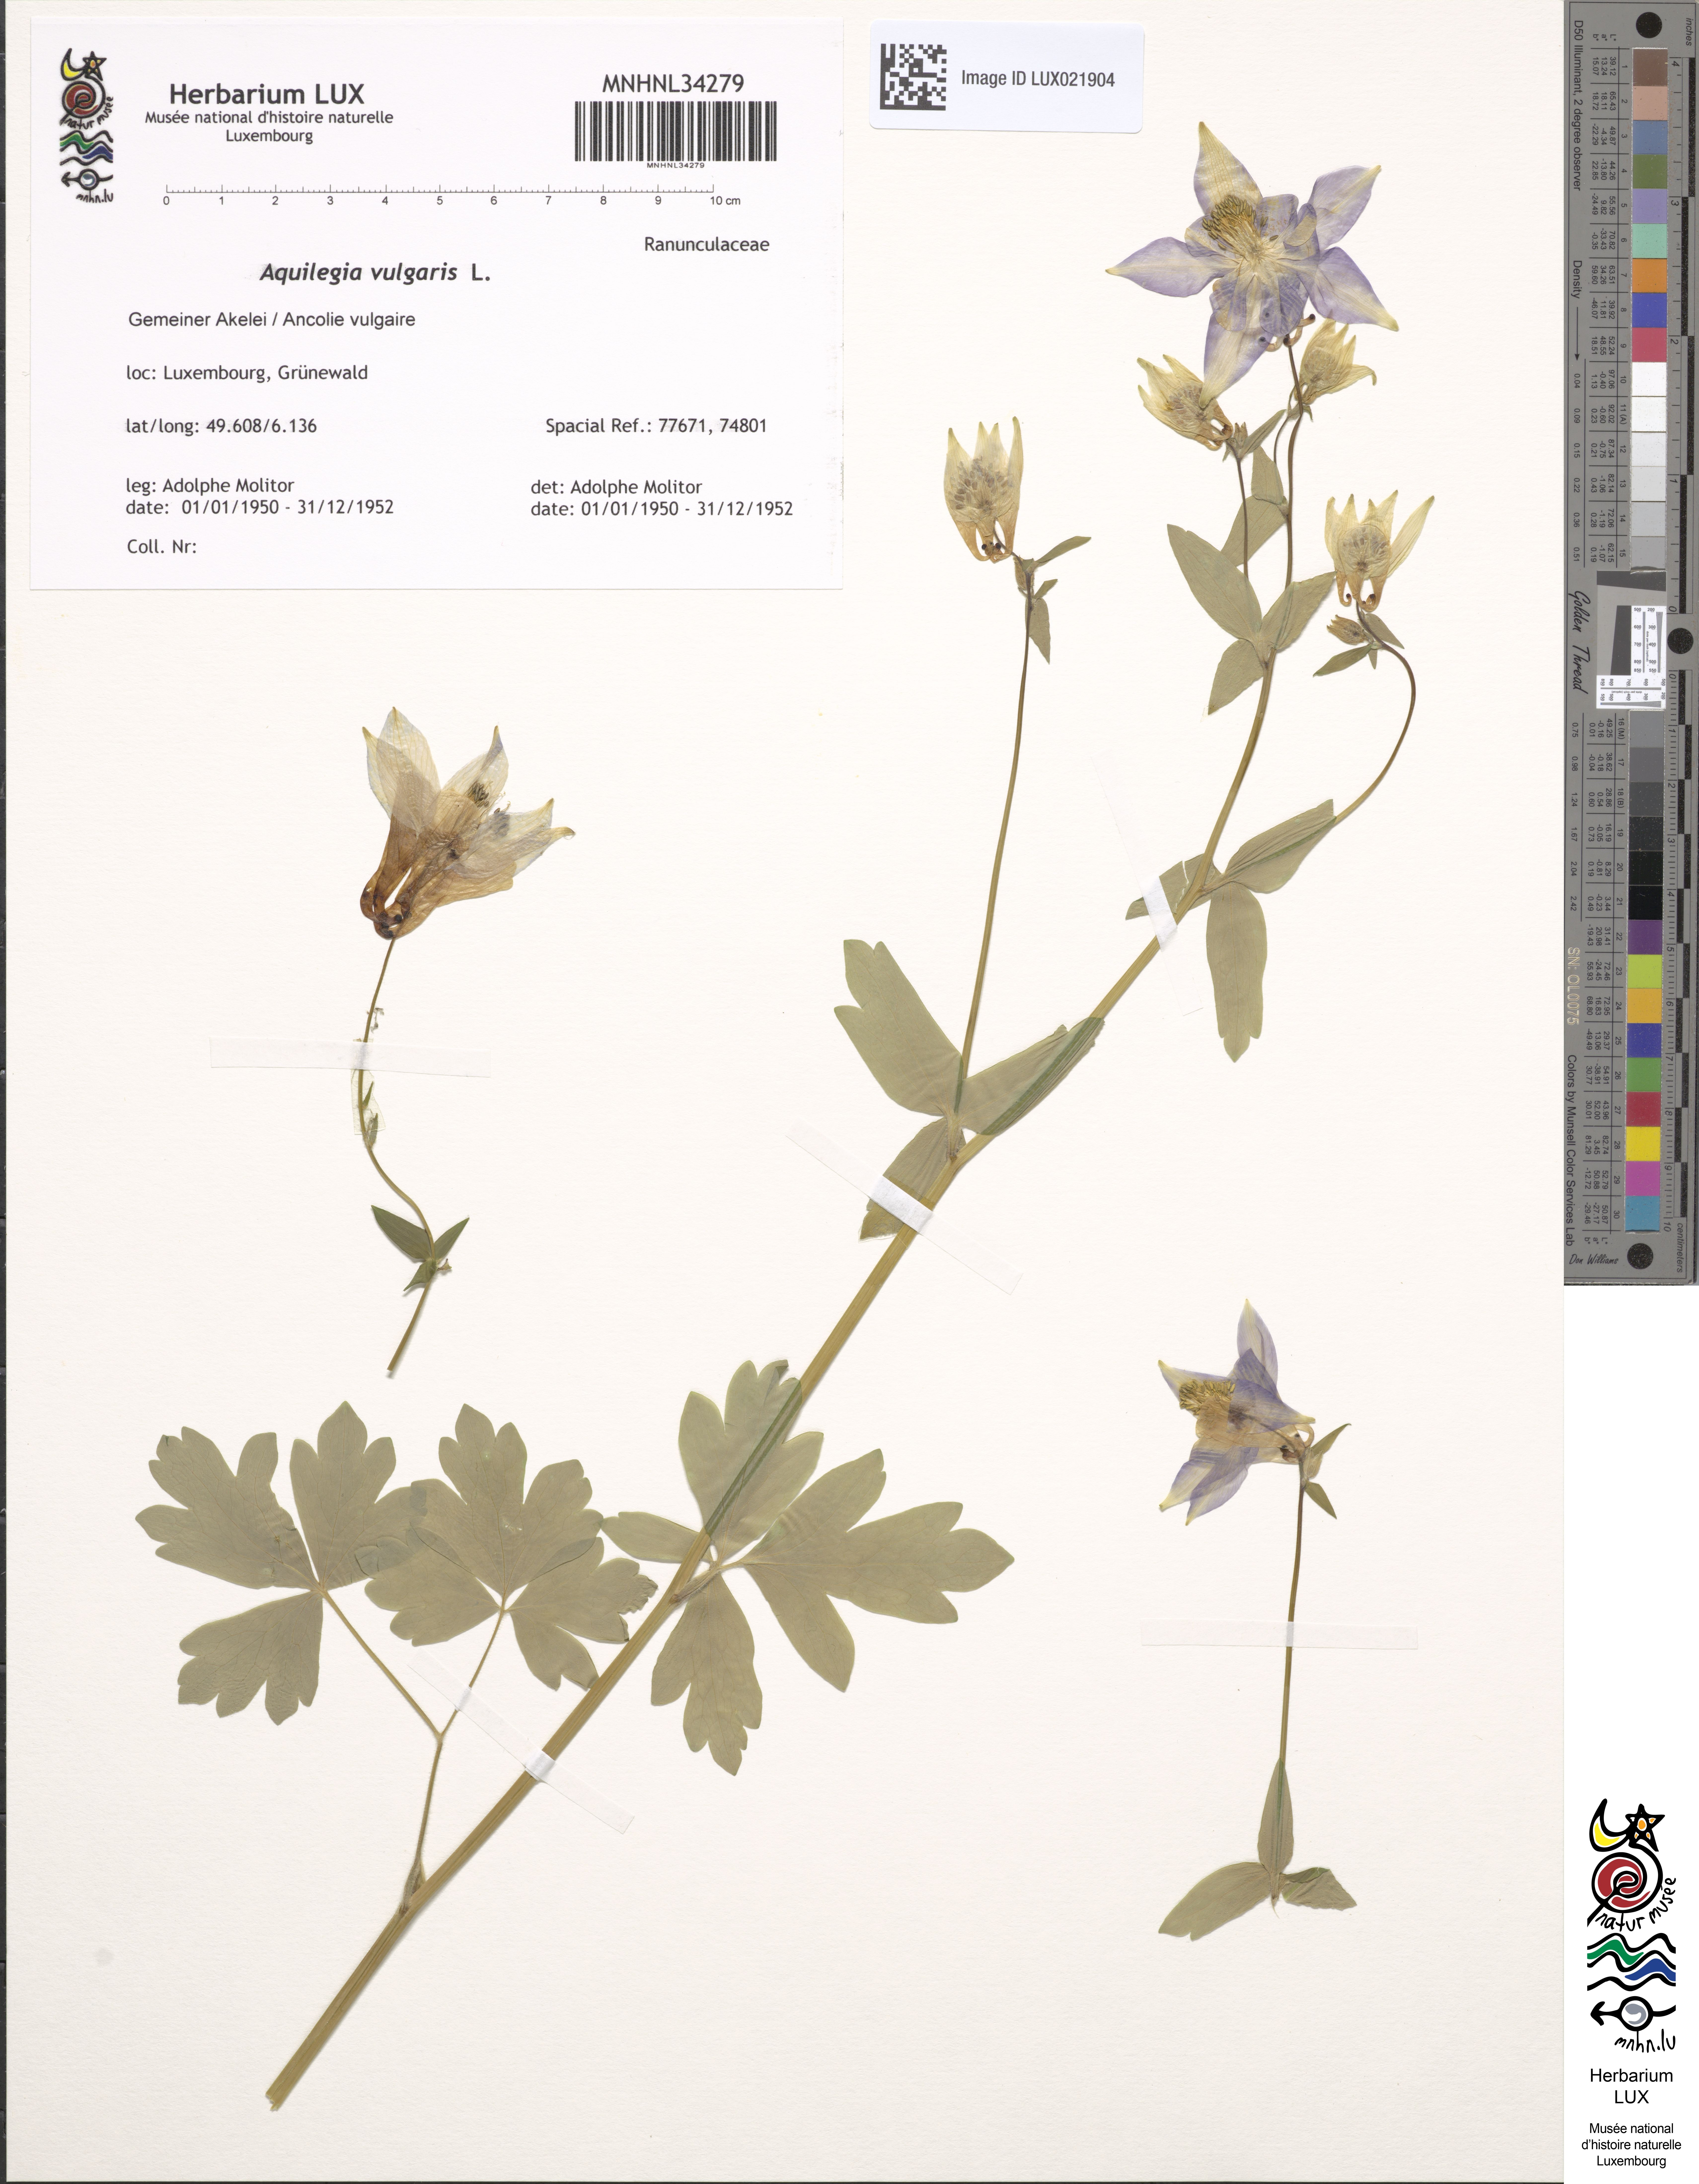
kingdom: Plantae
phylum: Tracheophyta
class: Magnoliopsida
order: Ranunculales
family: Ranunculaceae
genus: Aquilegia
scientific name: Aquilegia vulgaris
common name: Columbine
